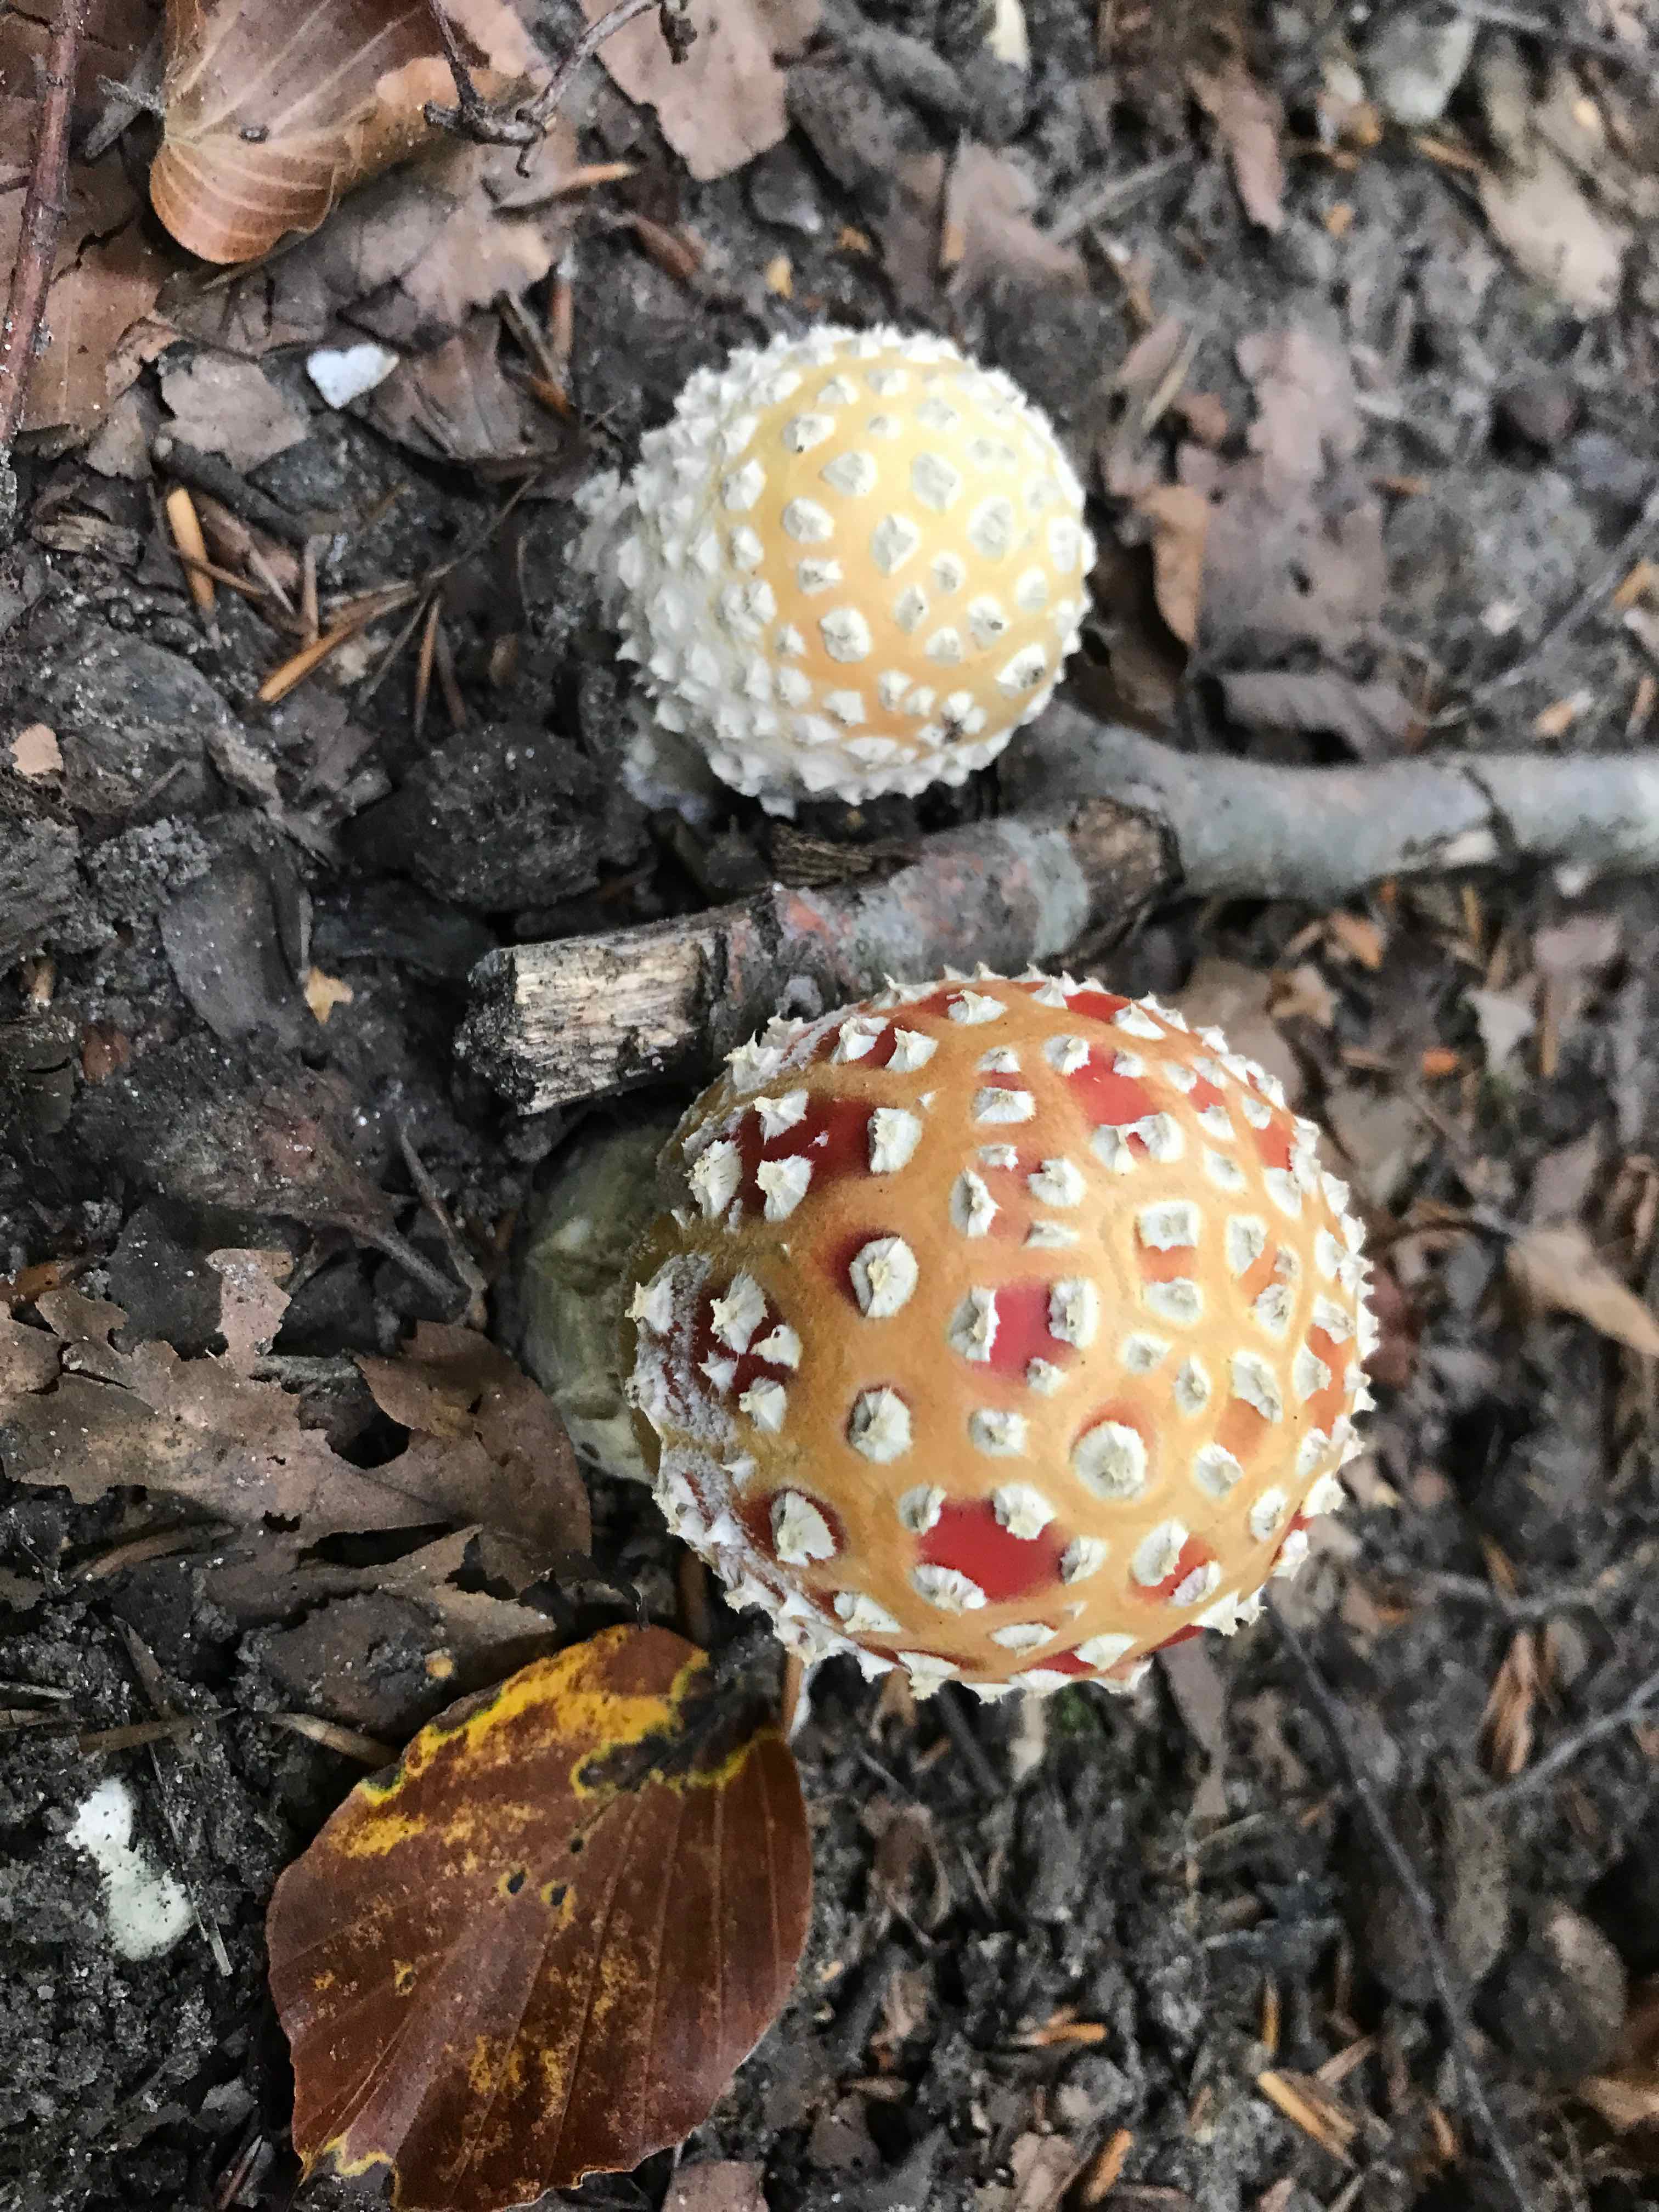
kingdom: Fungi
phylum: Basidiomycota
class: Agaricomycetes
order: Agaricales
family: Amanitaceae
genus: Amanita
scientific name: Amanita muscaria
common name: rød fluesvamp
